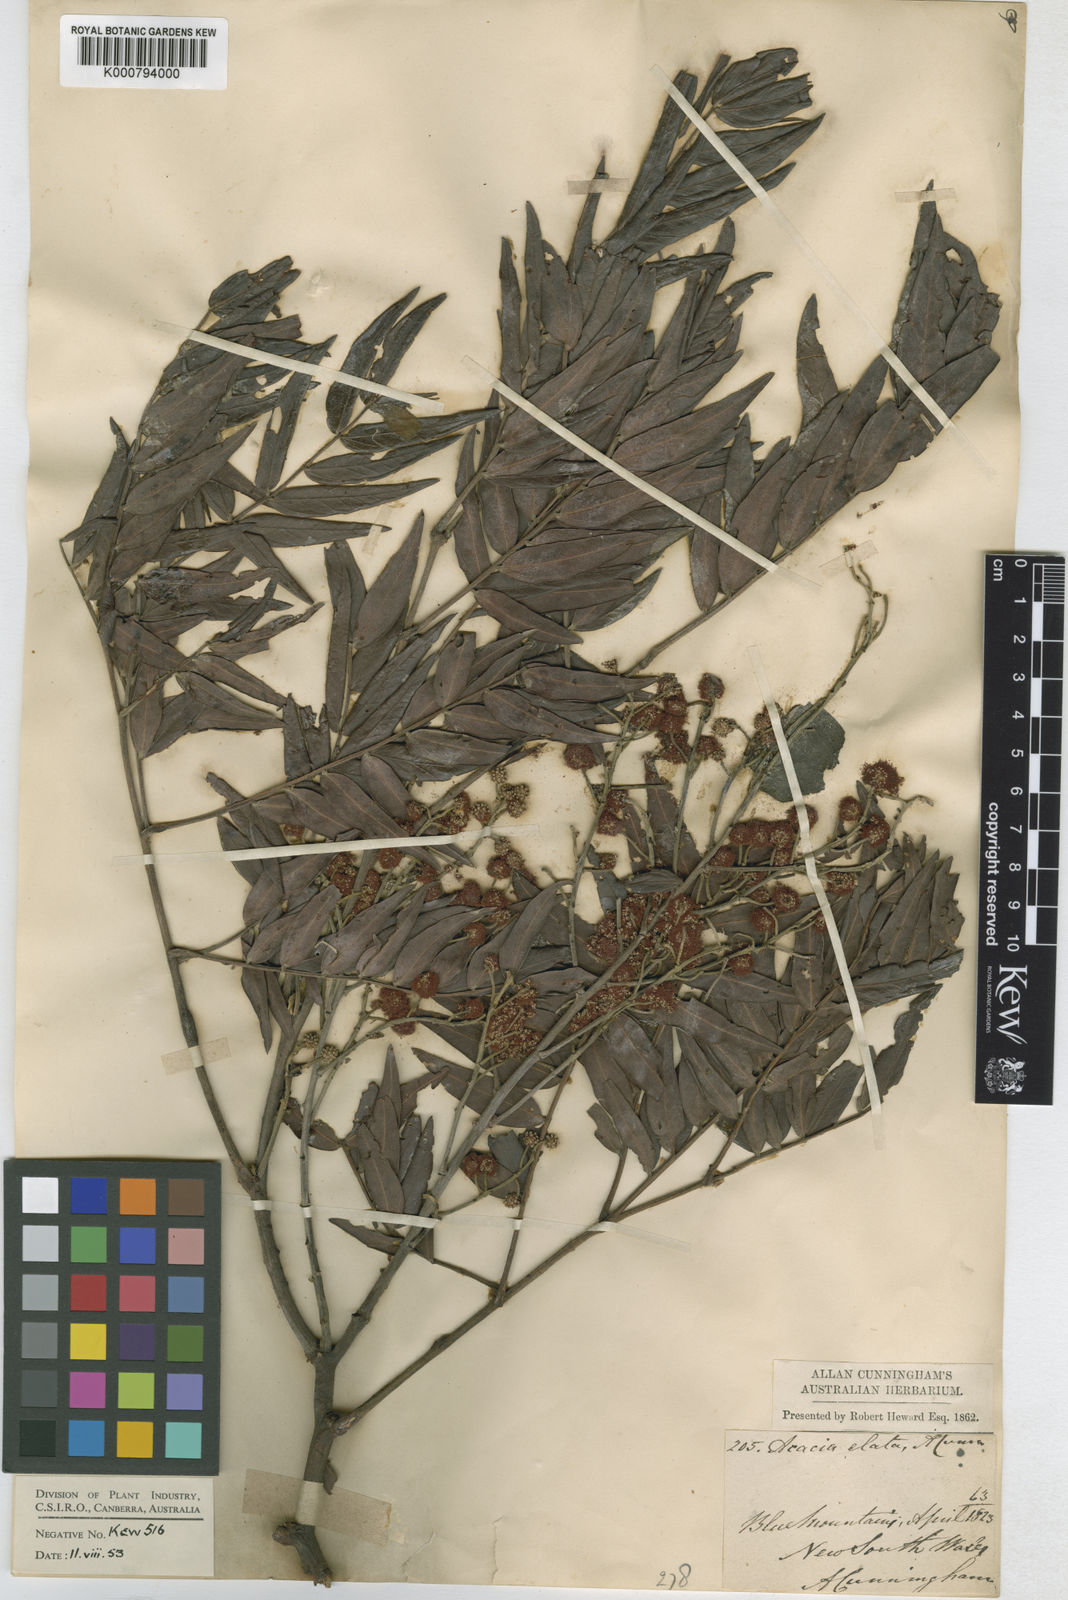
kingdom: Plantae
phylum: Tracheophyta
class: Magnoliopsida
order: Fabales
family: Fabaceae
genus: Acacia
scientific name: Acacia elata
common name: Cedar wattle
